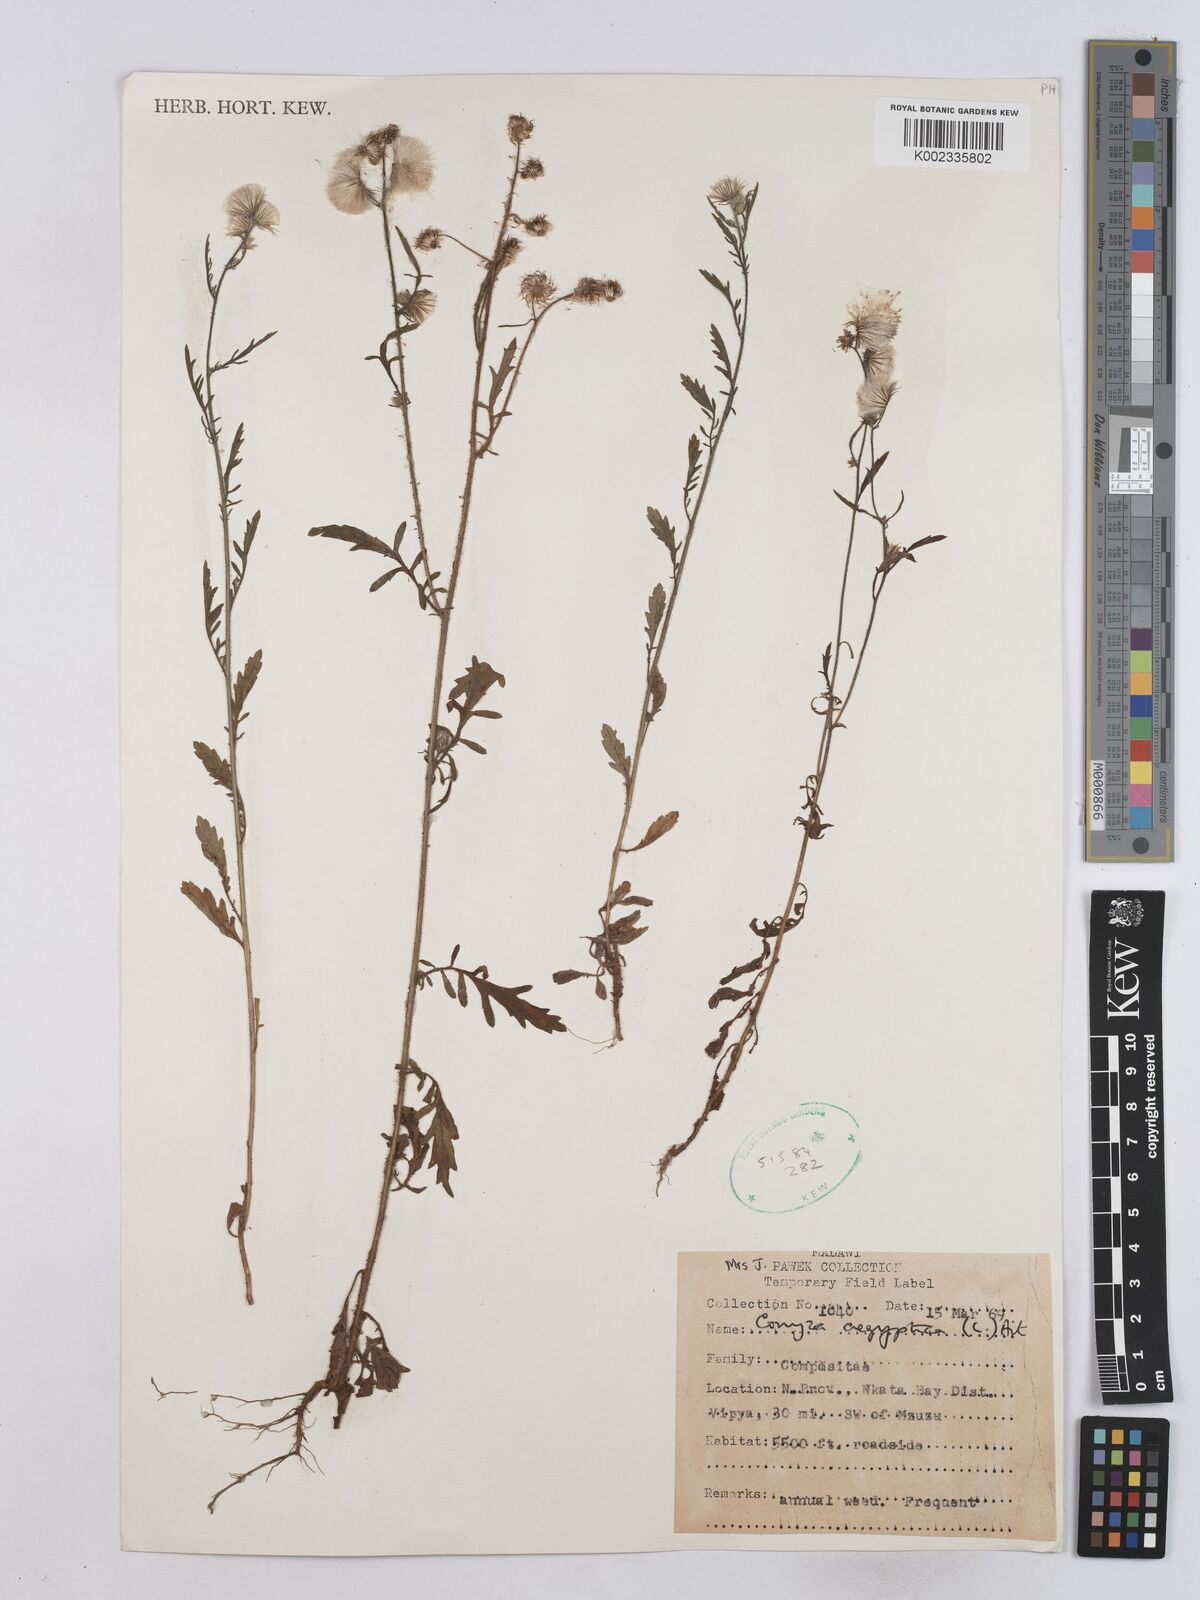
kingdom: Plantae
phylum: Tracheophyta
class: Magnoliopsida
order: Asterales
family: Asteraceae
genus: Nidorella
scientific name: Nidorella aegyptiaca
